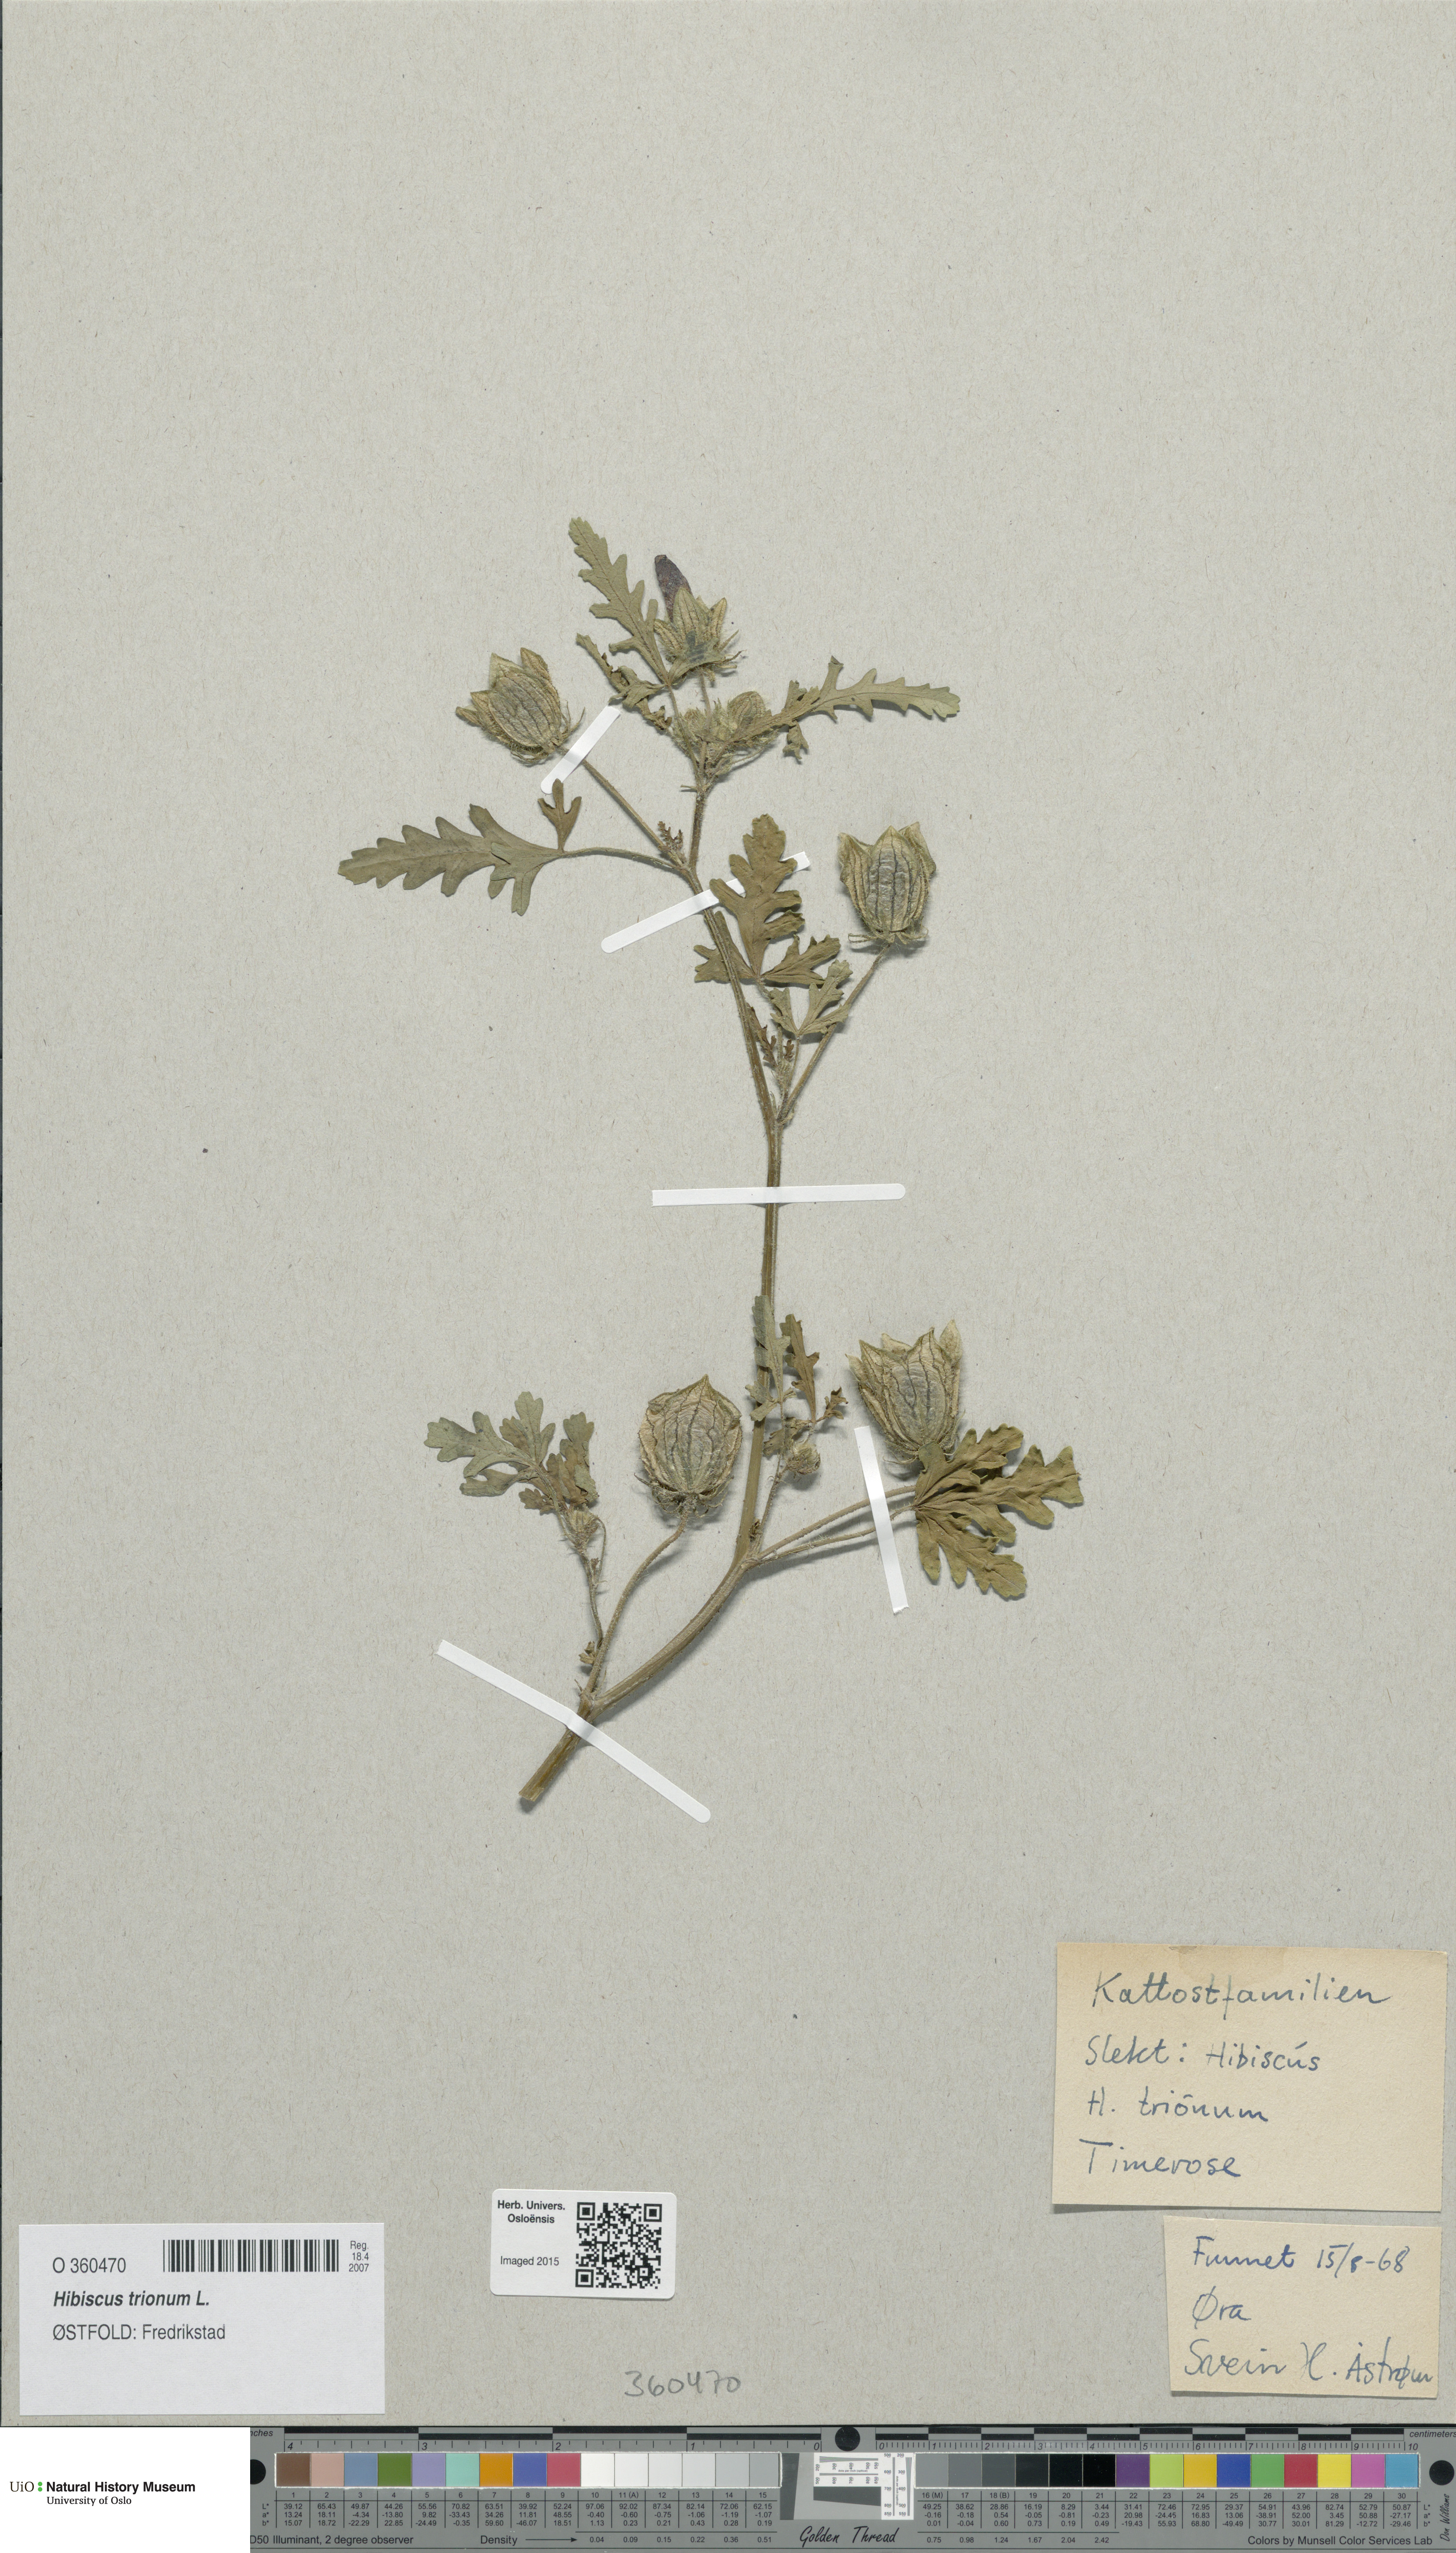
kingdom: Plantae
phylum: Tracheophyta
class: Magnoliopsida
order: Malvales
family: Malvaceae
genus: Hibiscus
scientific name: Hibiscus trionum
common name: Bladder ketmia
